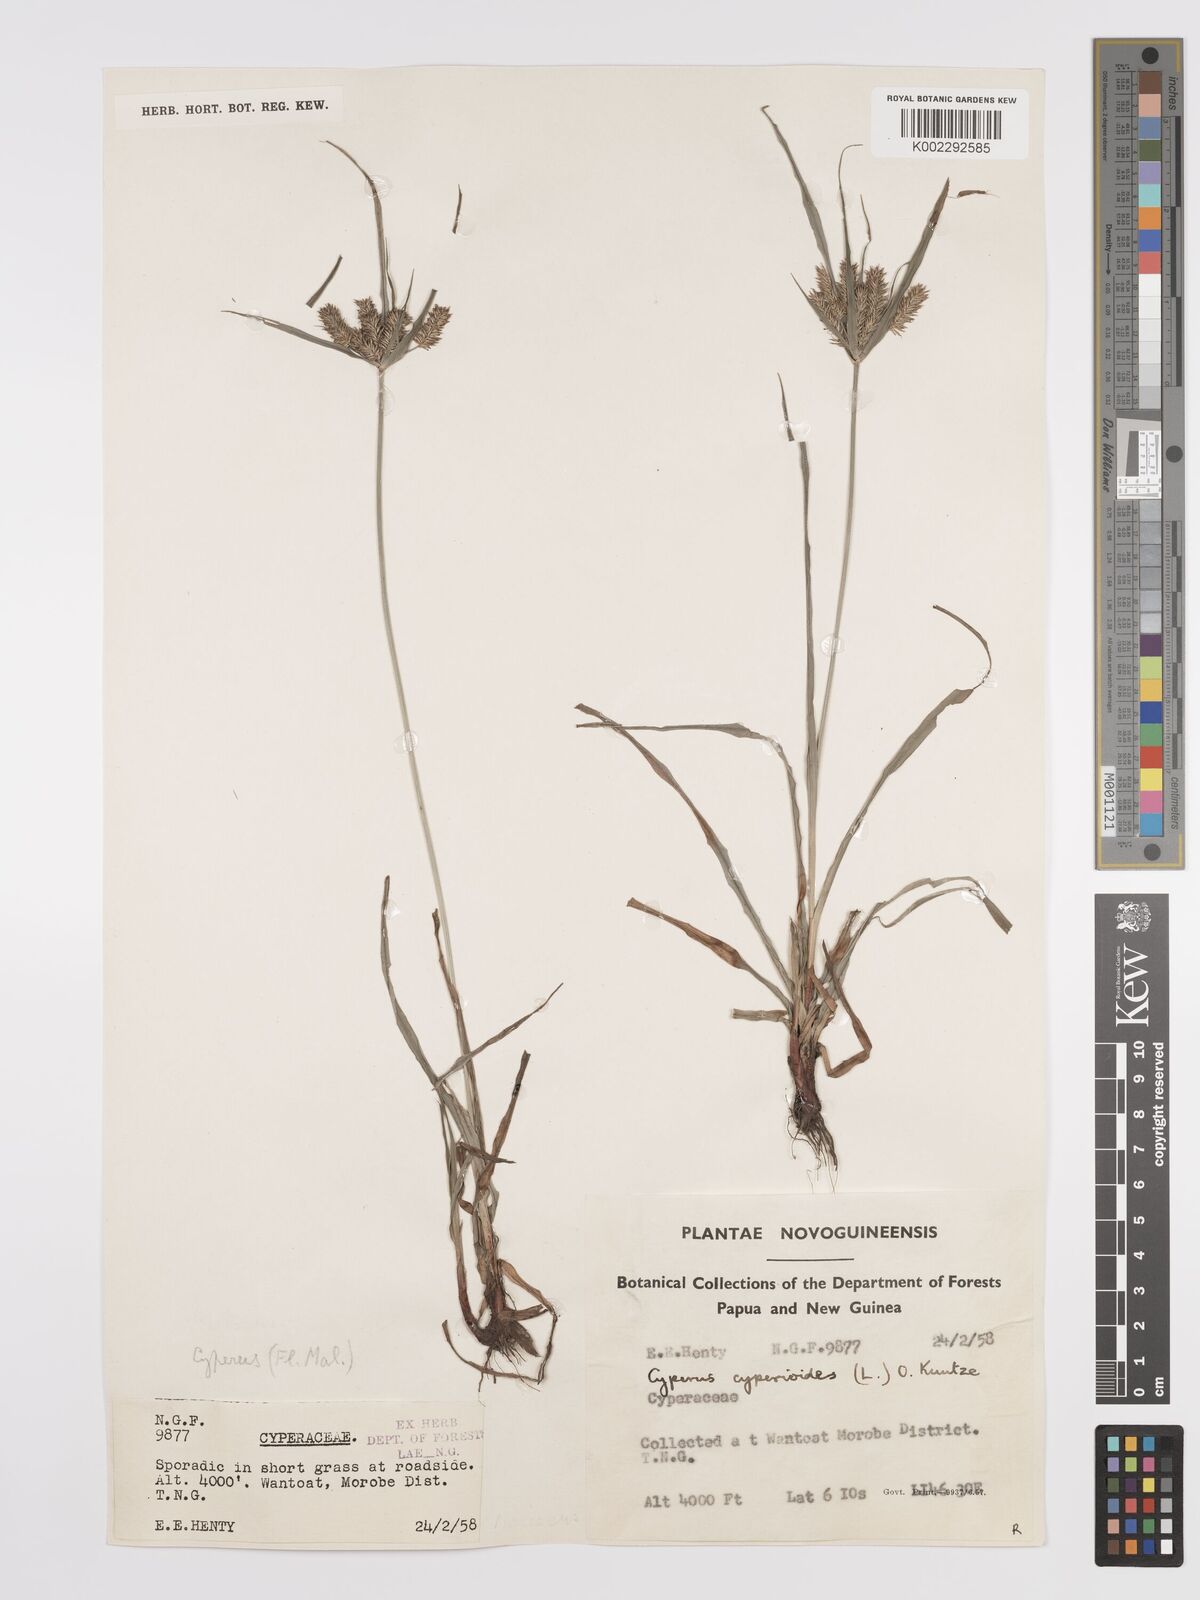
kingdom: Plantae
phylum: Tracheophyta
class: Liliopsida
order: Poales
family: Cyperaceae
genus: Cyperus
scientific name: Cyperus cyperoides
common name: Pacific island flat sedge
